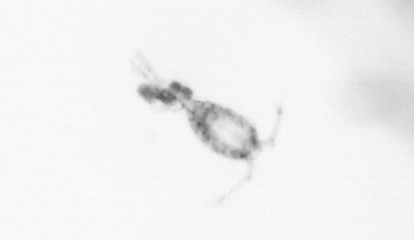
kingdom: Animalia
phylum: Arthropoda
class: Copepoda
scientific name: Copepoda
